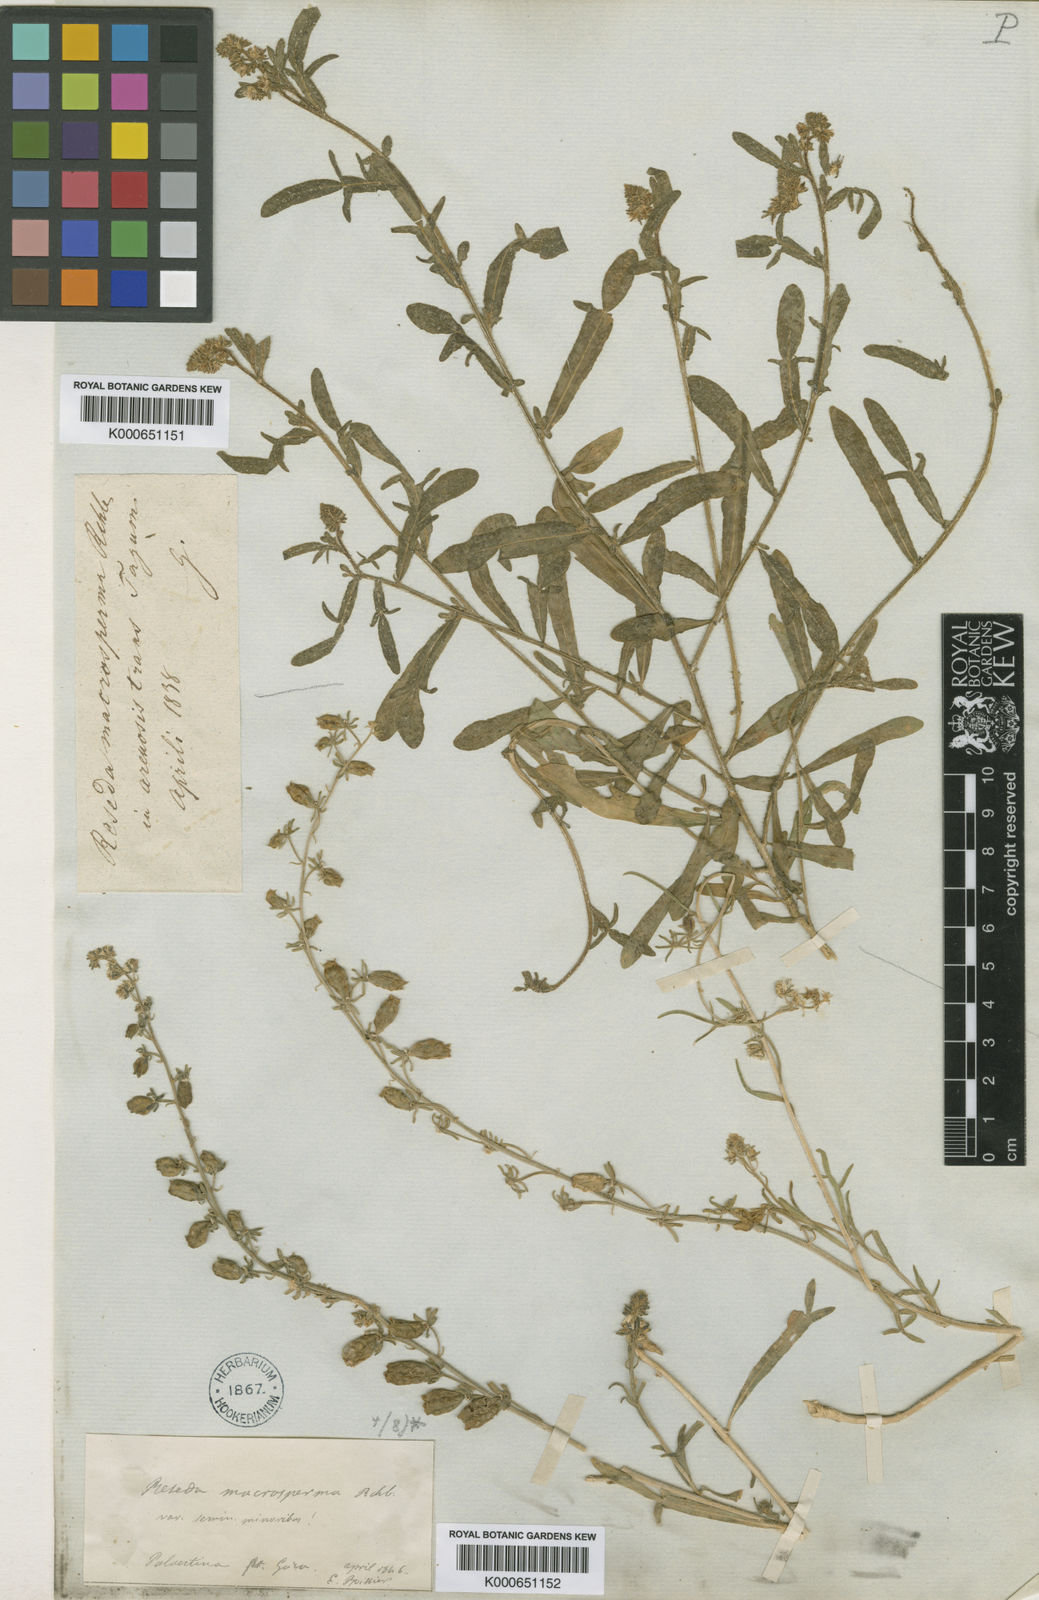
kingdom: Plantae
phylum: Tracheophyta
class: Magnoliopsida
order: Brassicales
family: Resedaceae
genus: Reseda
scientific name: Reseda orientalis
